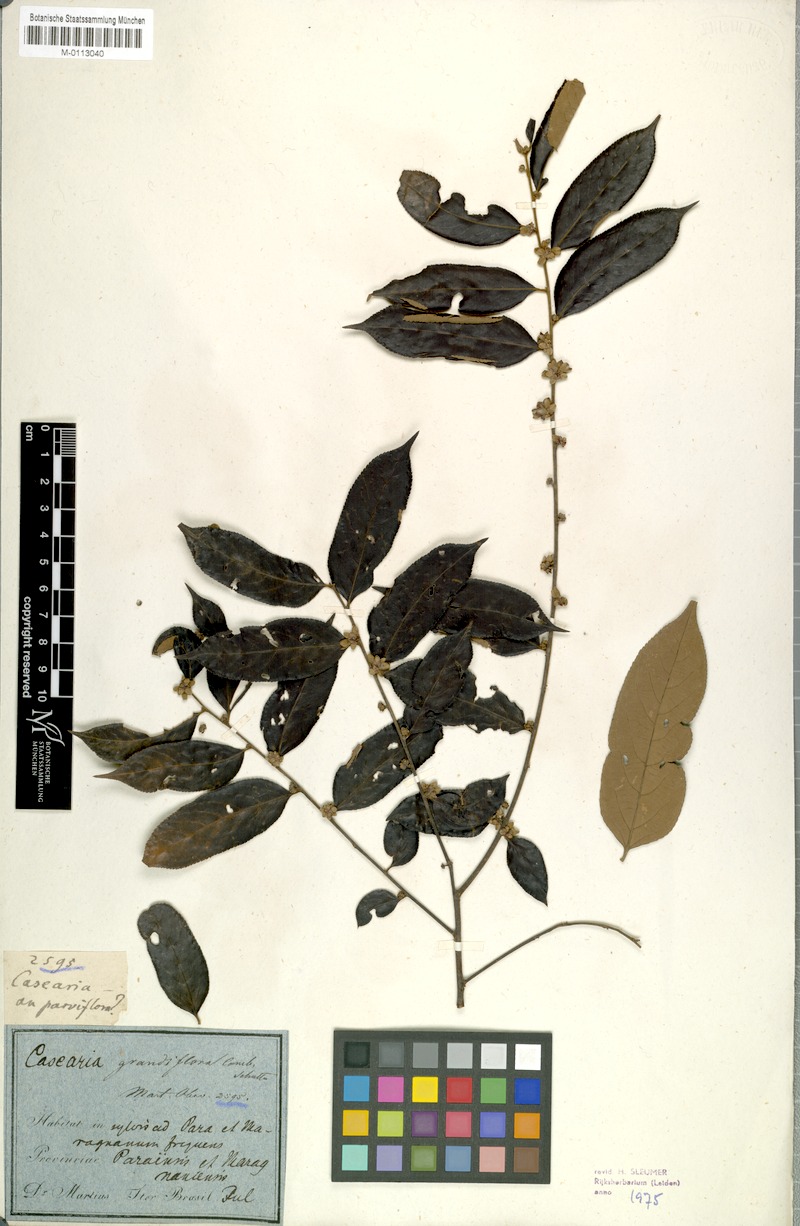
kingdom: Plantae
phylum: Tracheophyta
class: Magnoliopsida
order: Malpighiales
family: Salicaceae
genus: Casearia
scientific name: Casearia grandiflora
